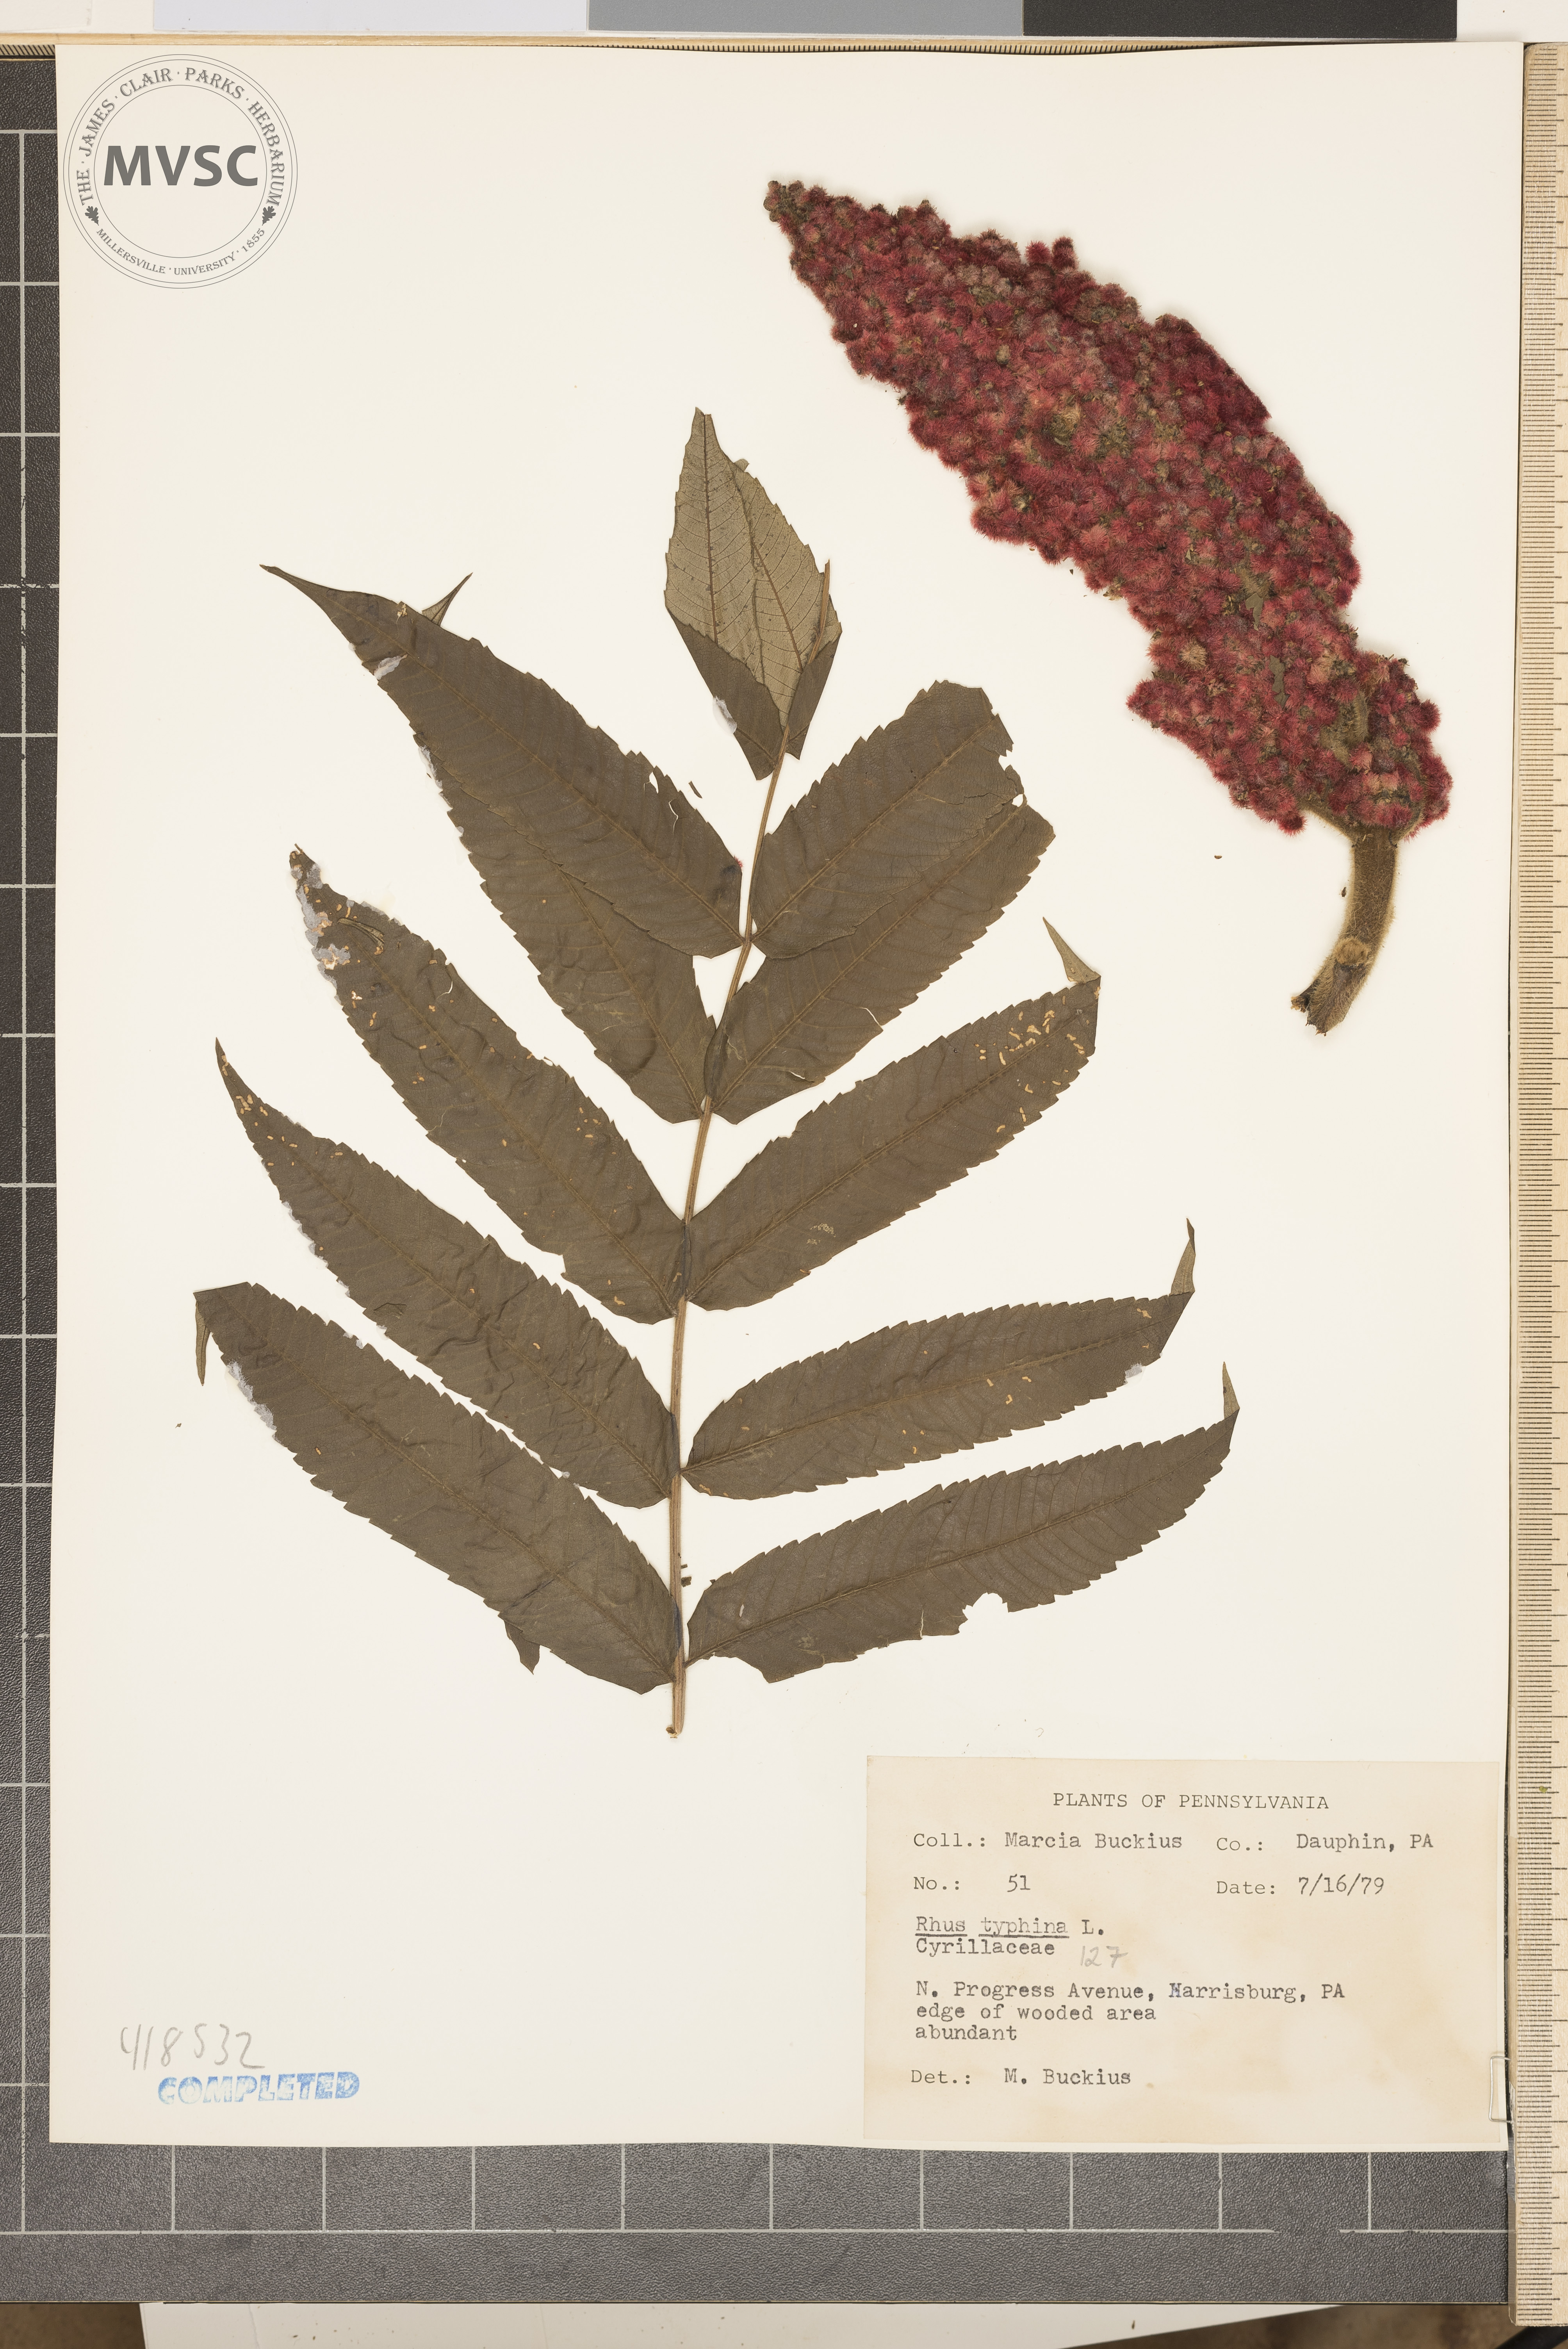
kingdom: Plantae
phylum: Tracheophyta
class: Magnoliopsida
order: Sapindales
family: Anacardiaceae
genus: Rhus
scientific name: Rhus typhina
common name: Staghorn sumac
